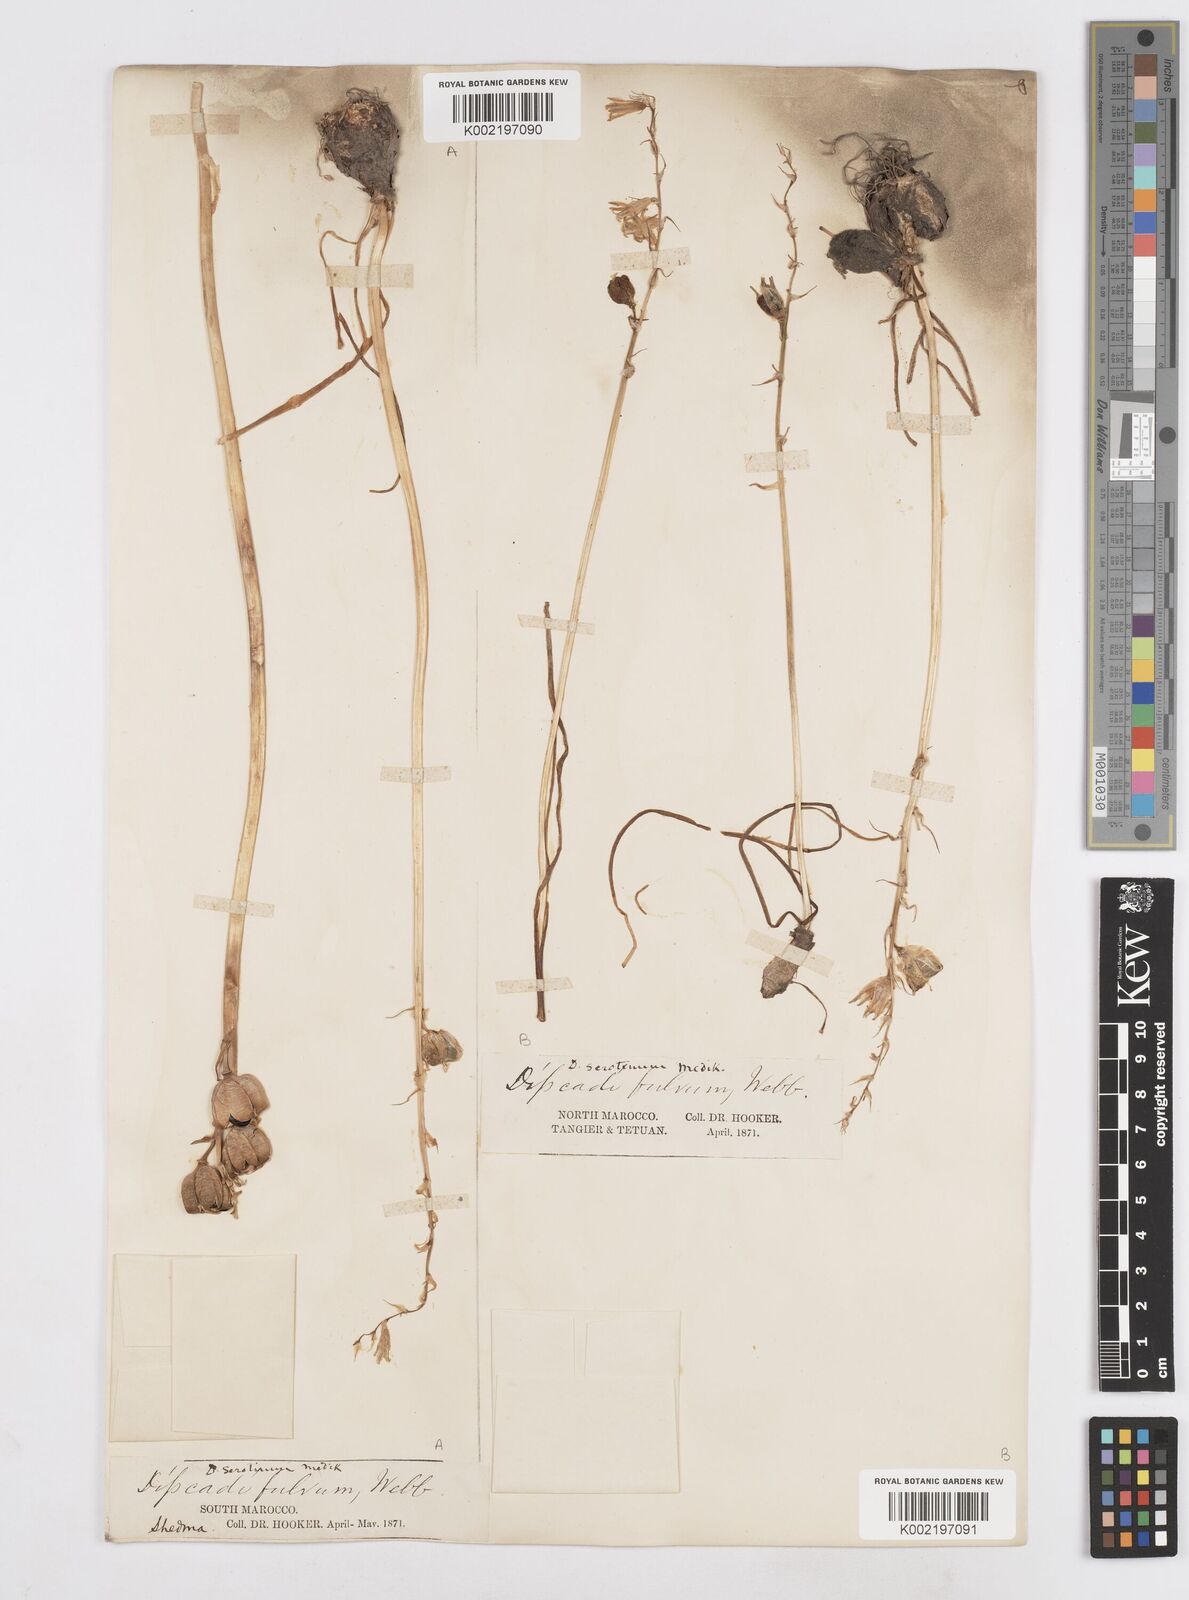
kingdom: Plantae
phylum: Tracheophyta
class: Liliopsida
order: Asparagales
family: Asparagaceae
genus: Dipcadi
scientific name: Dipcadi serotinum
